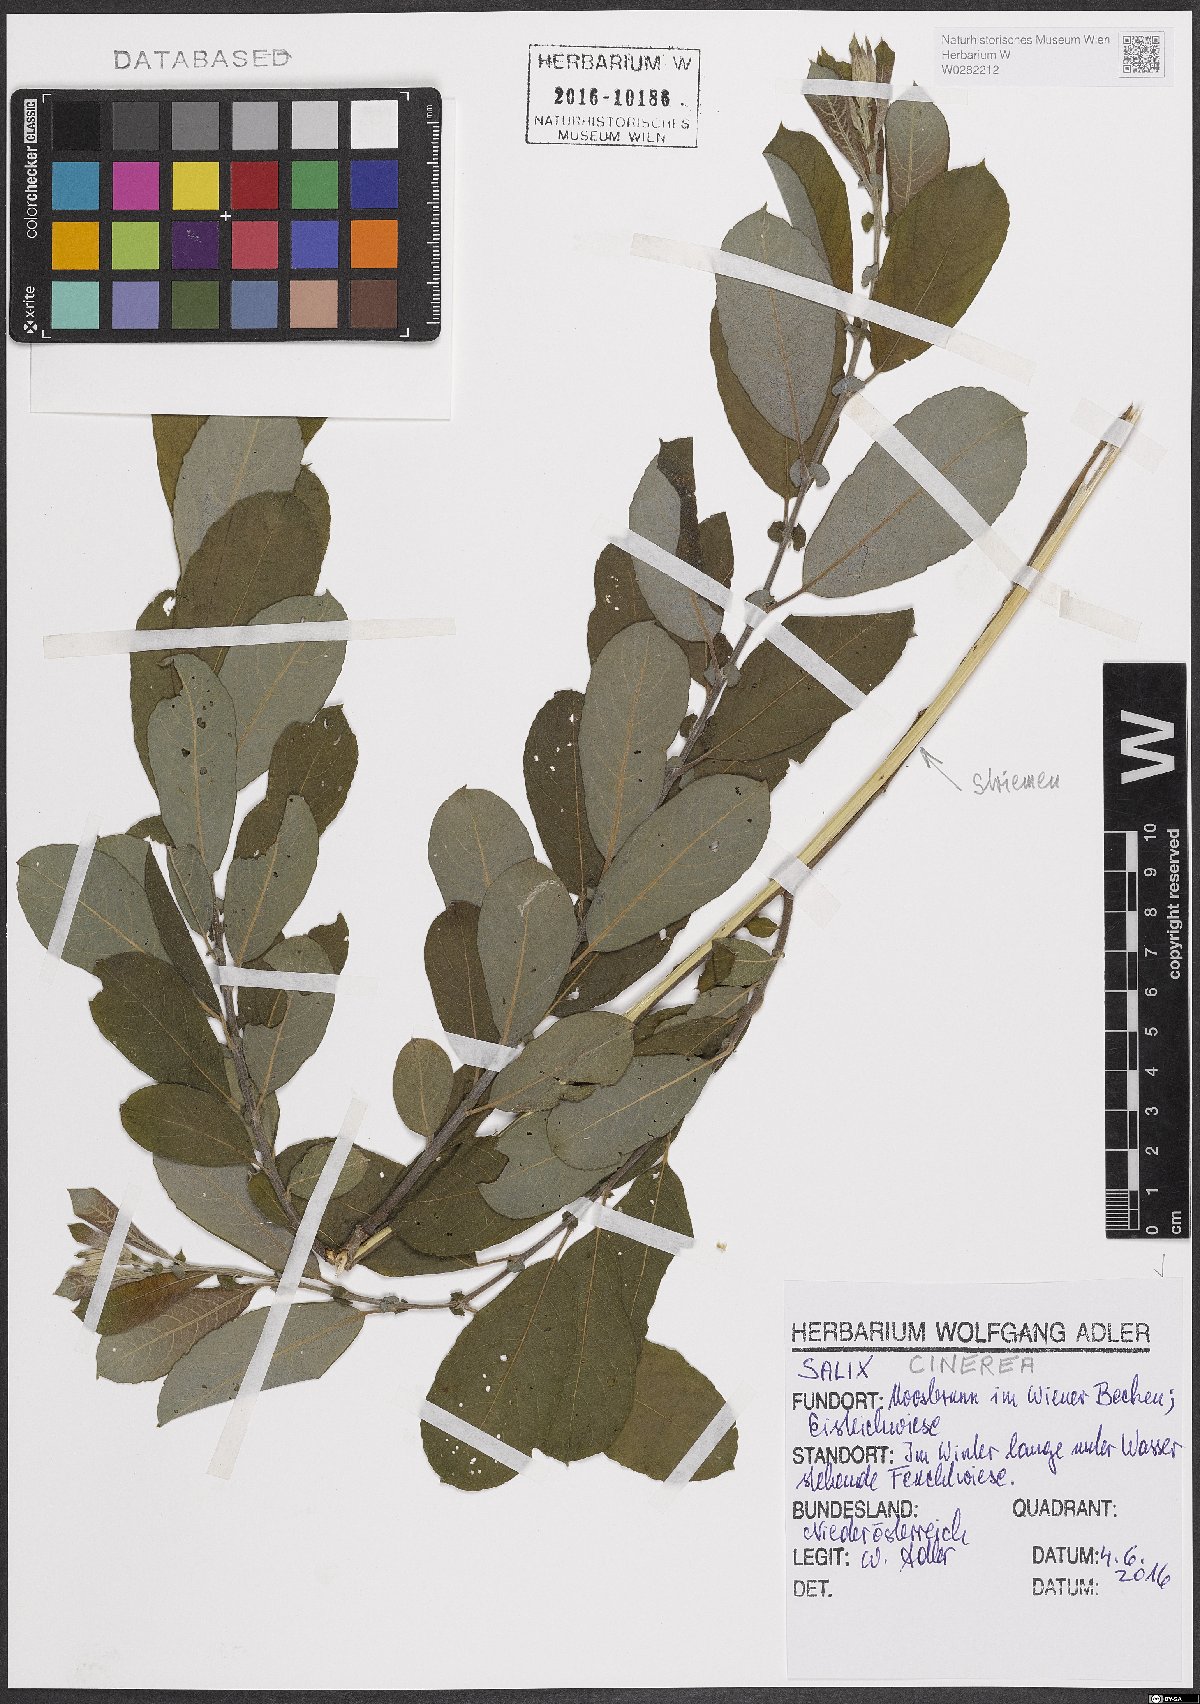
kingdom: Plantae
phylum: Tracheophyta
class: Magnoliopsida
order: Malpighiales
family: Salicaceae
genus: Salix
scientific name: Salix cinerea
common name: Common sallow
